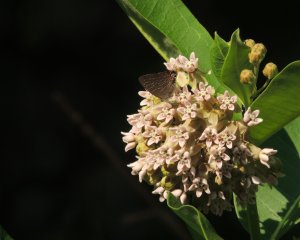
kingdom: Animalia
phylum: Arthropoda
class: Insecta
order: Lepidoptera
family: Lycaenidae
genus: Satyrium
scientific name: Satyrium liparops
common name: Striped Hairstreak
